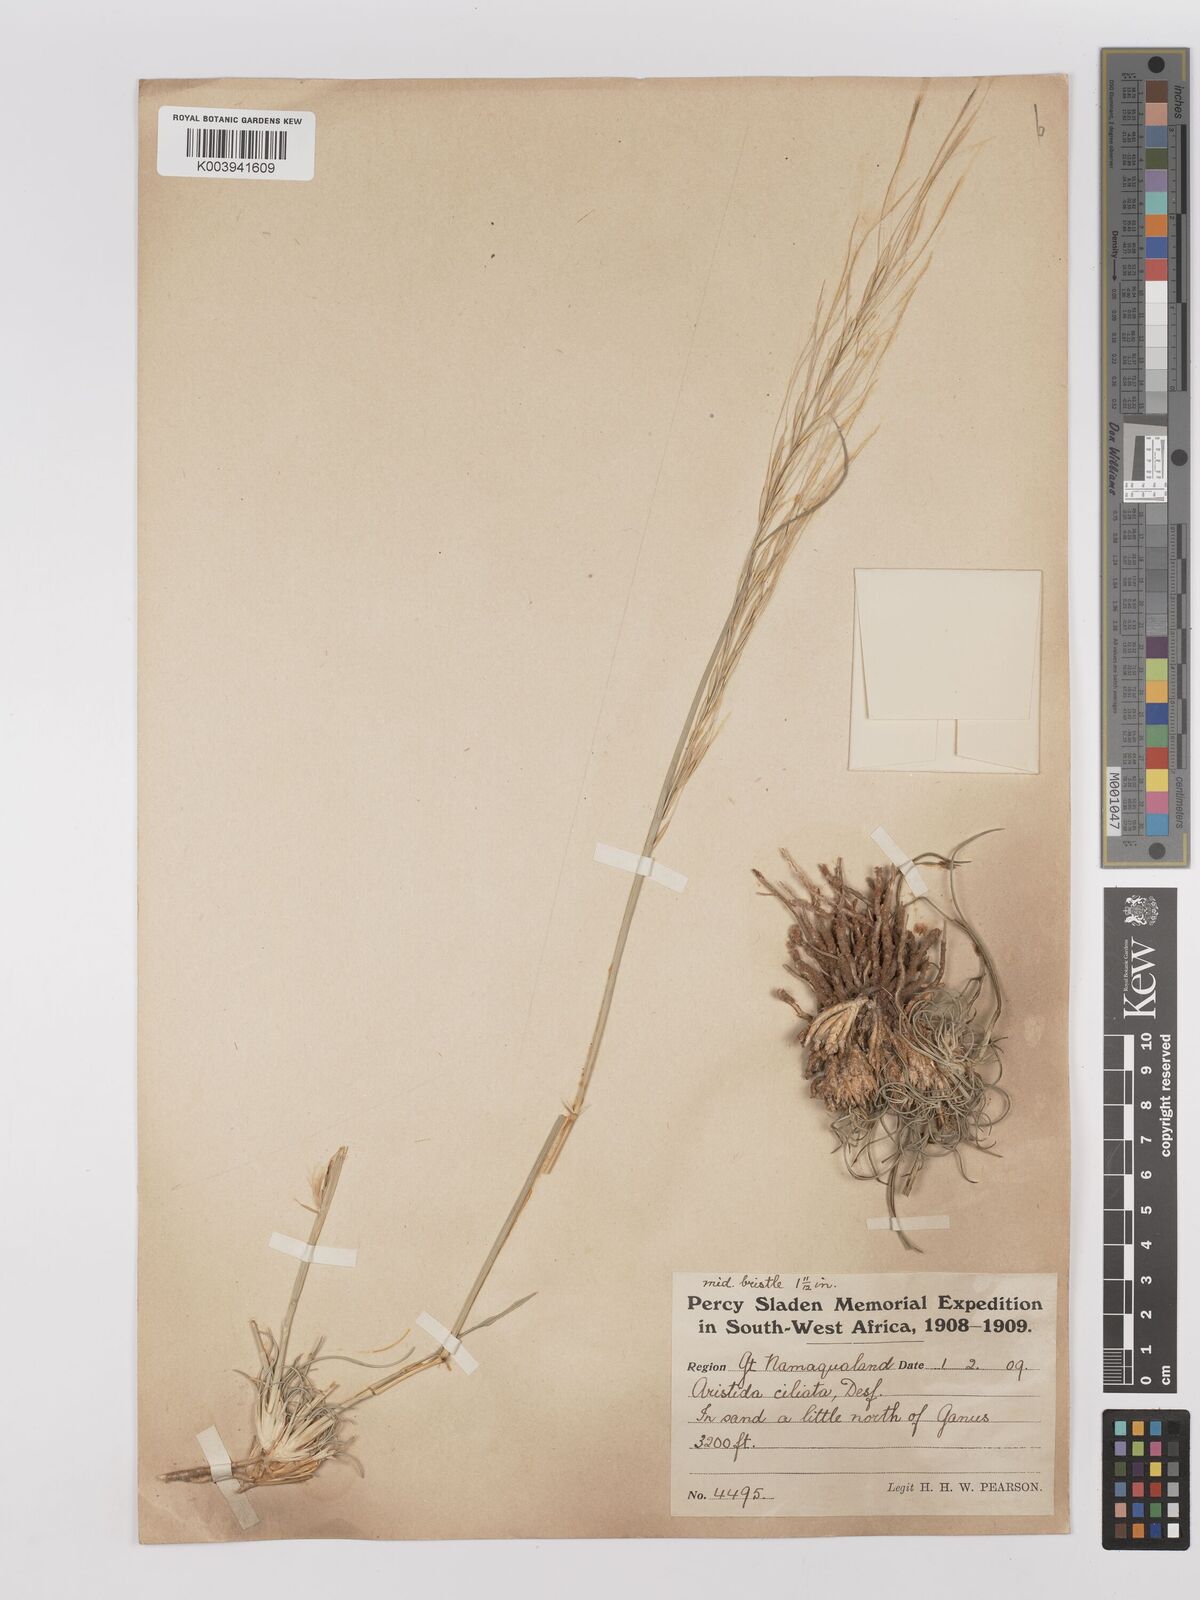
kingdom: Plantae
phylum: Tracheophyta
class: Liliopsida
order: Poales
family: Poaceae
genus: Stipagrostis
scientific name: Stipagrostis ciliata
